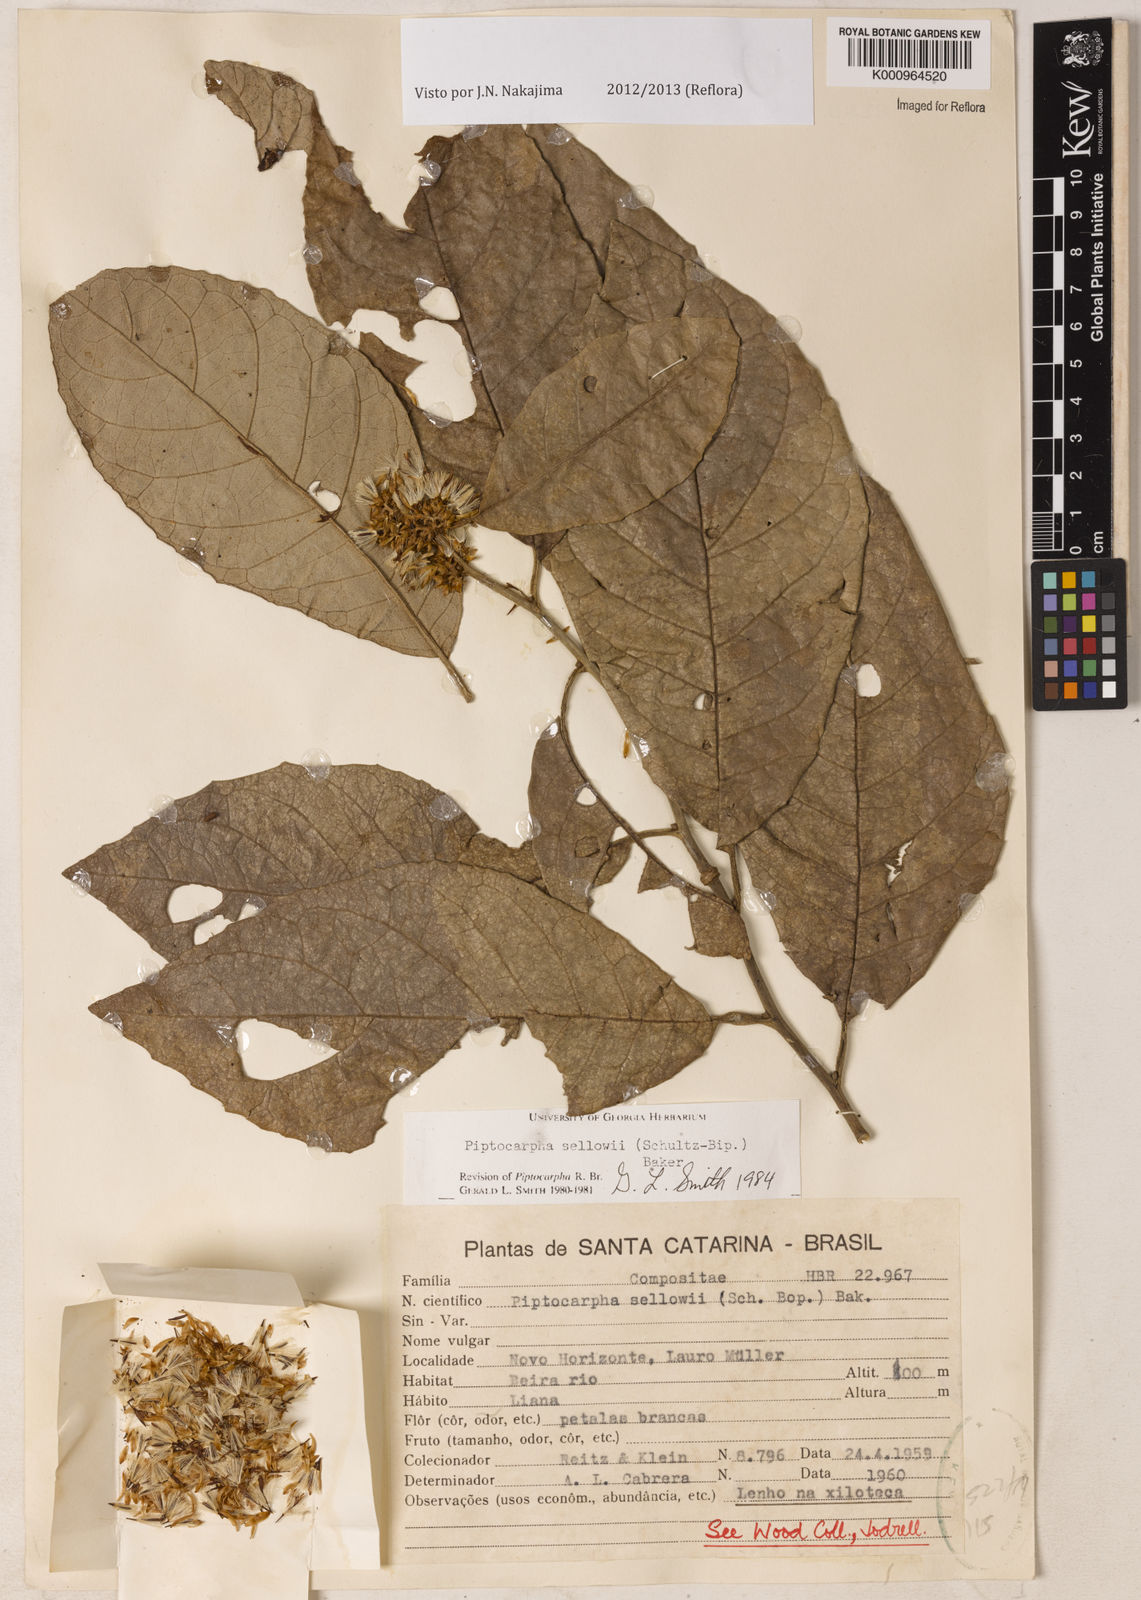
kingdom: Plantae
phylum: Tracheophyta
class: Magnoliopsida
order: Asterales
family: Asteraceae
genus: Piptocarpha
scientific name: Piptocarpha
